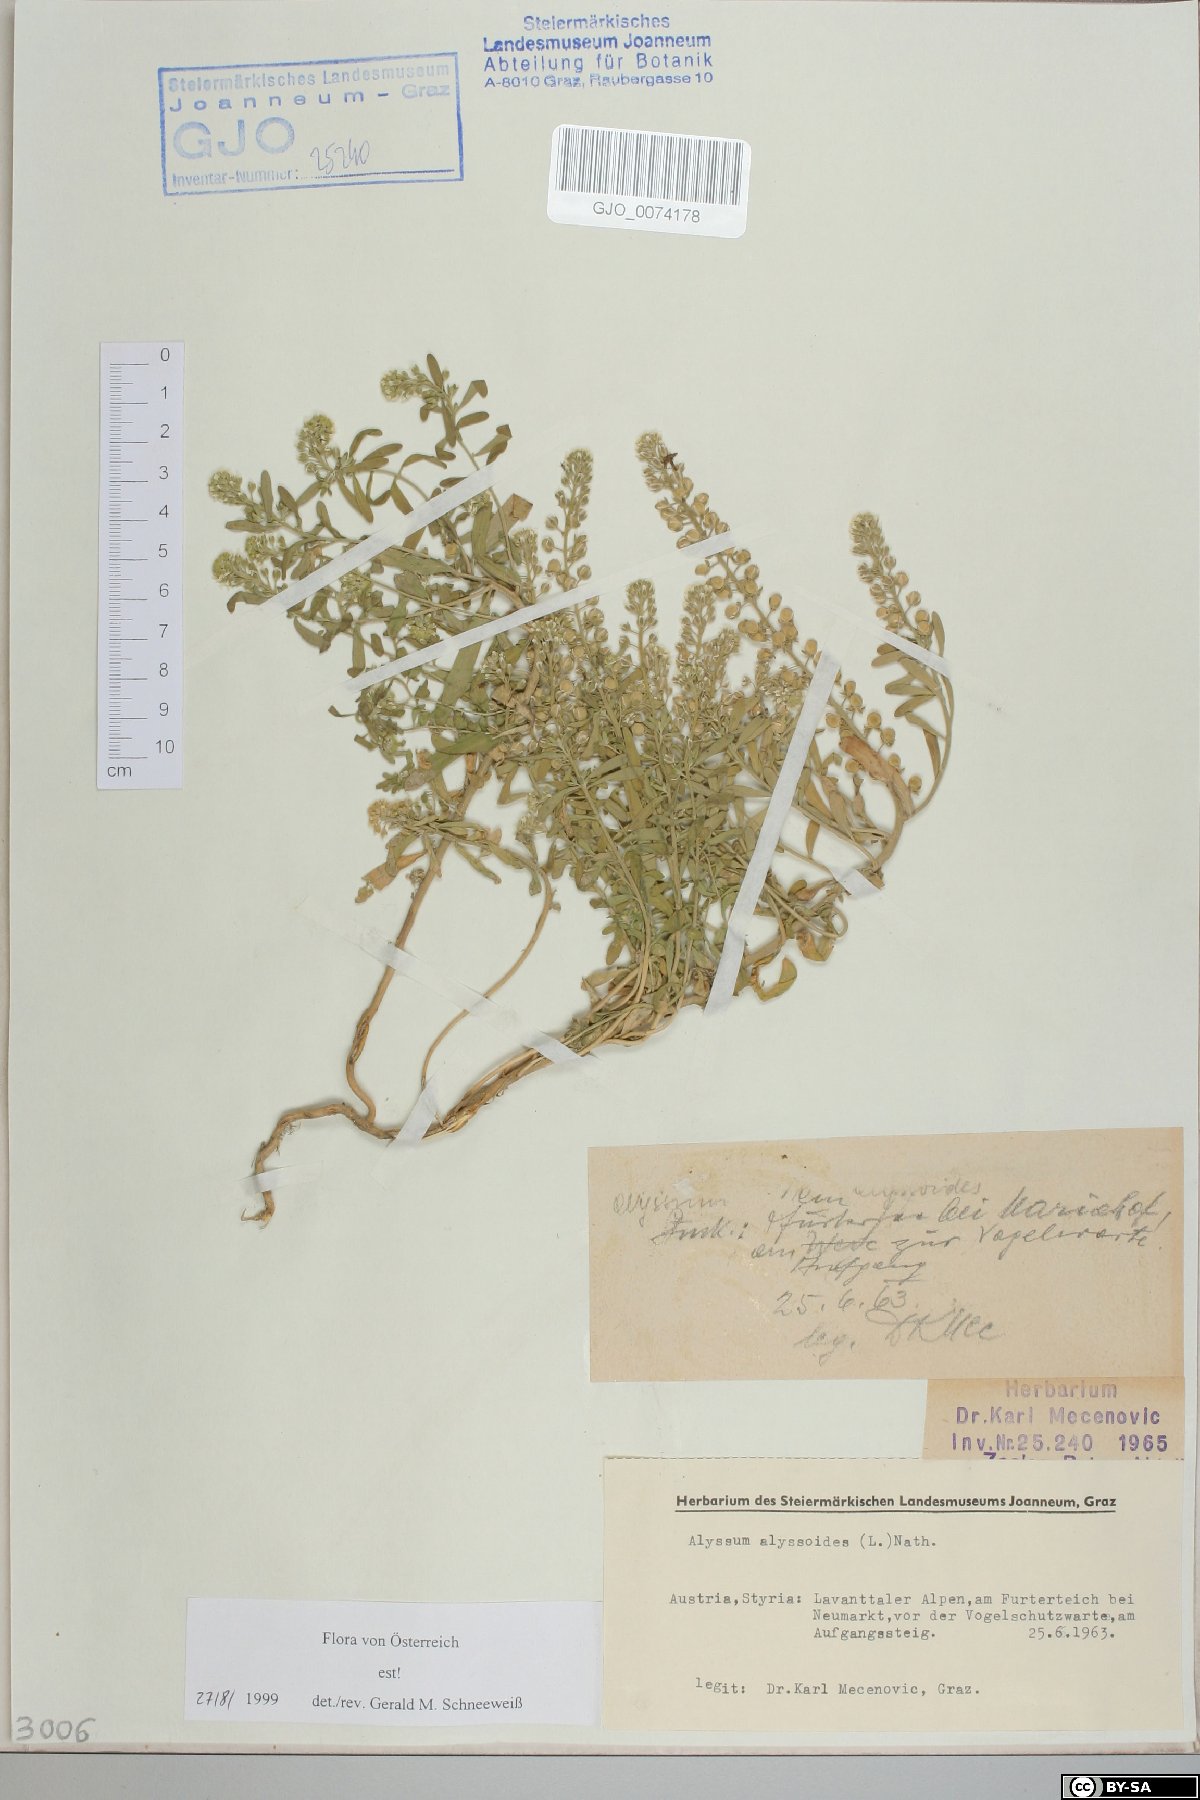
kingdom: Plantae
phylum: Tracheophyta
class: Magnoliopsida
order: Brassicales
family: Brassicaceae
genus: Alyssum
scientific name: Alyssum alyssoides
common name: Small alison
